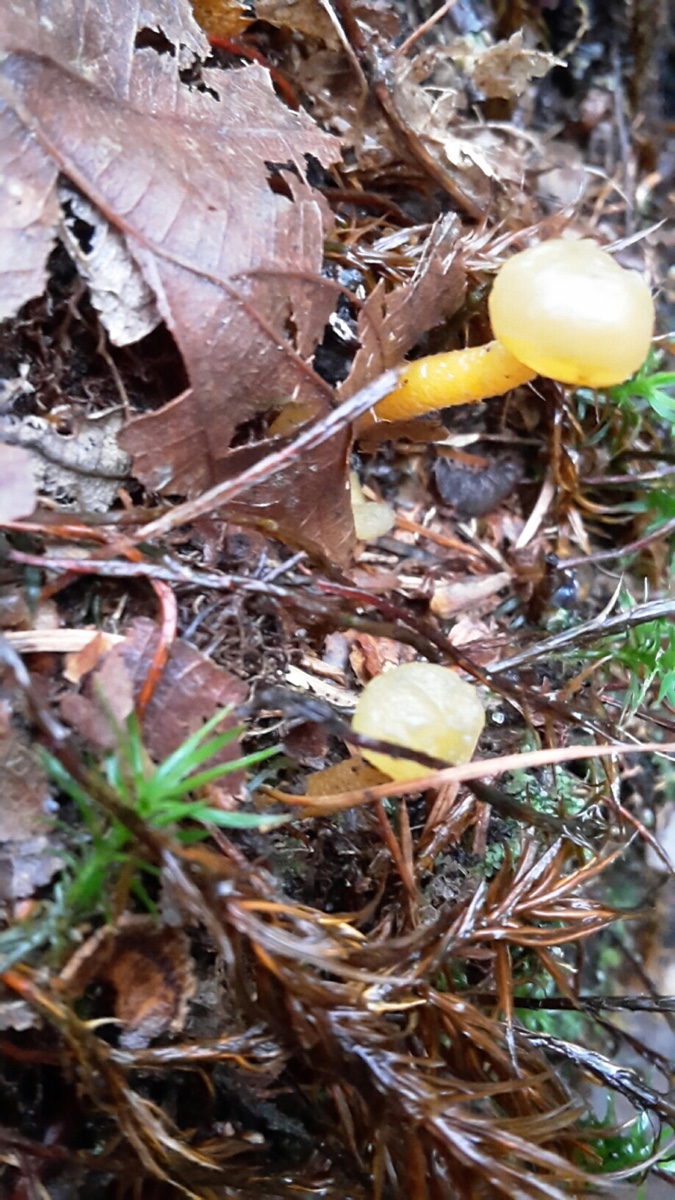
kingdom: Fungi
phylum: Ascomycota
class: Leotiomycetes
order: Leotiales
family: Leotiaceae
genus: Leotia
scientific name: Leotia lubrica
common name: ravsvamp
